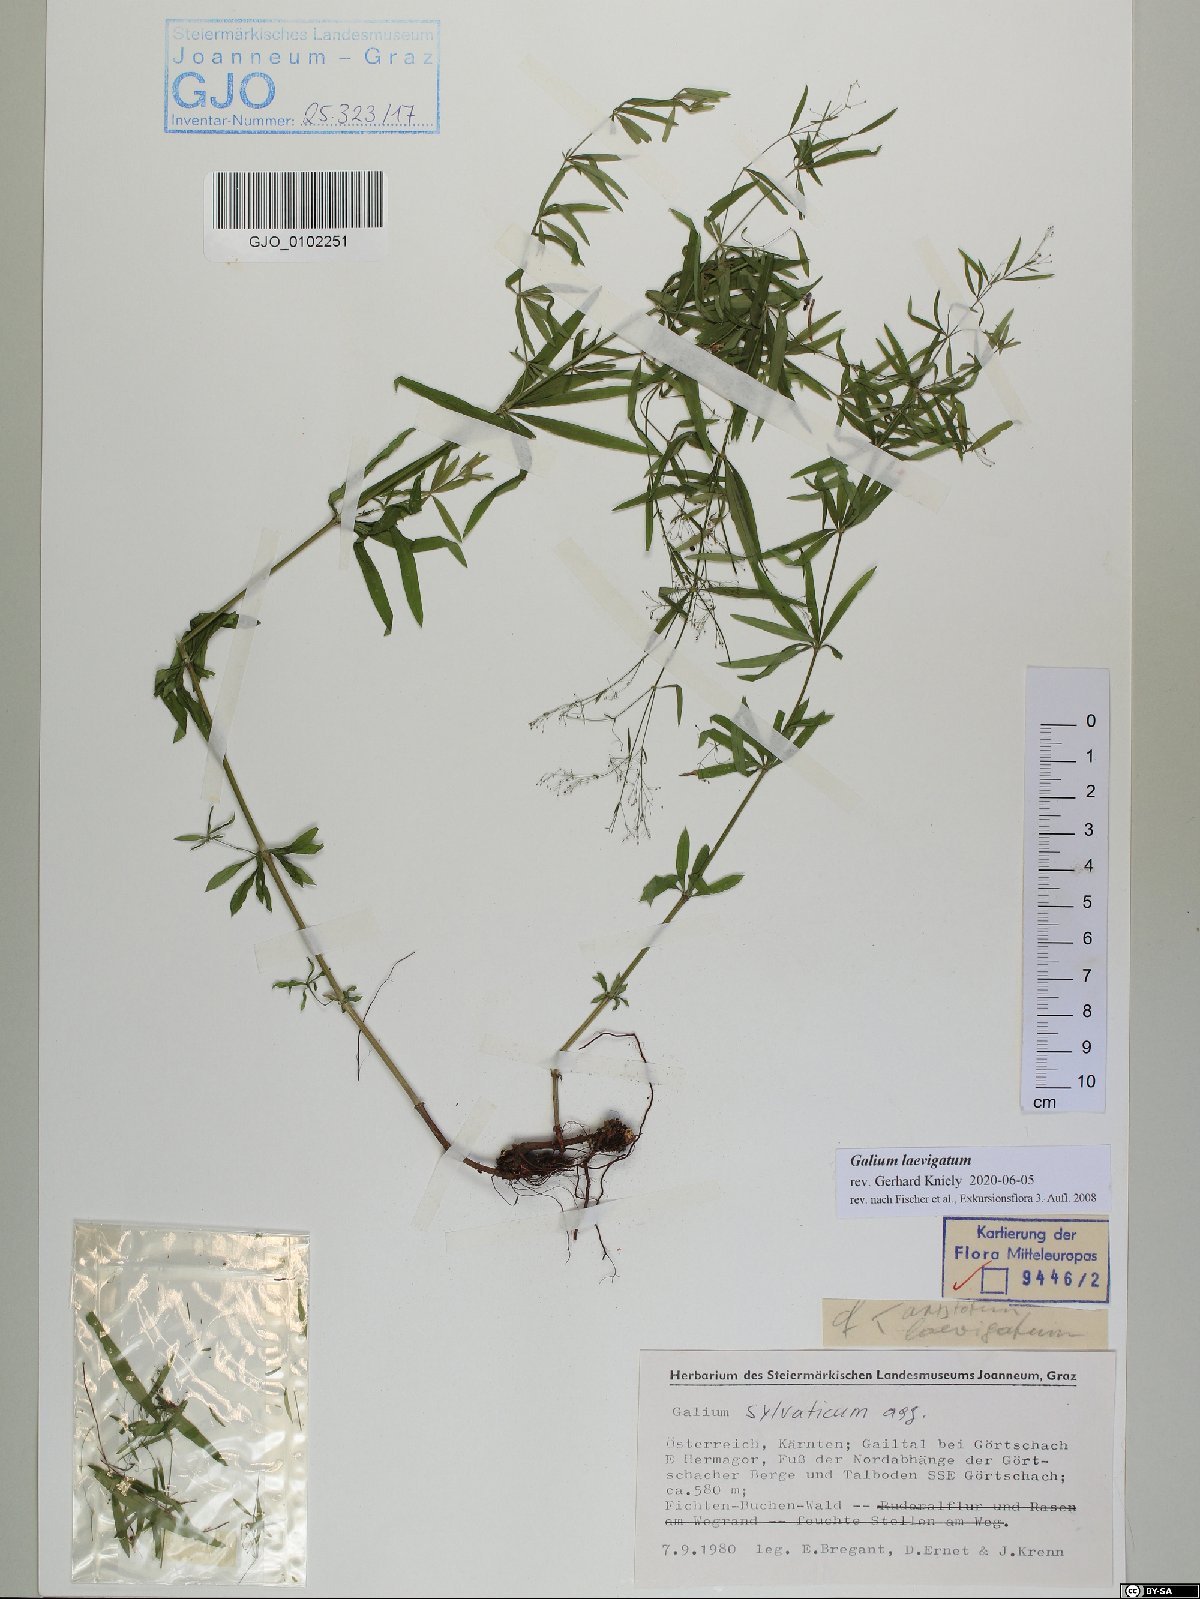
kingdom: Plantae
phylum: Tracheophyta
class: Magnoliopsida
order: Gentianales
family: Rubiaceae
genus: Galium
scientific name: Galium laevigatum
